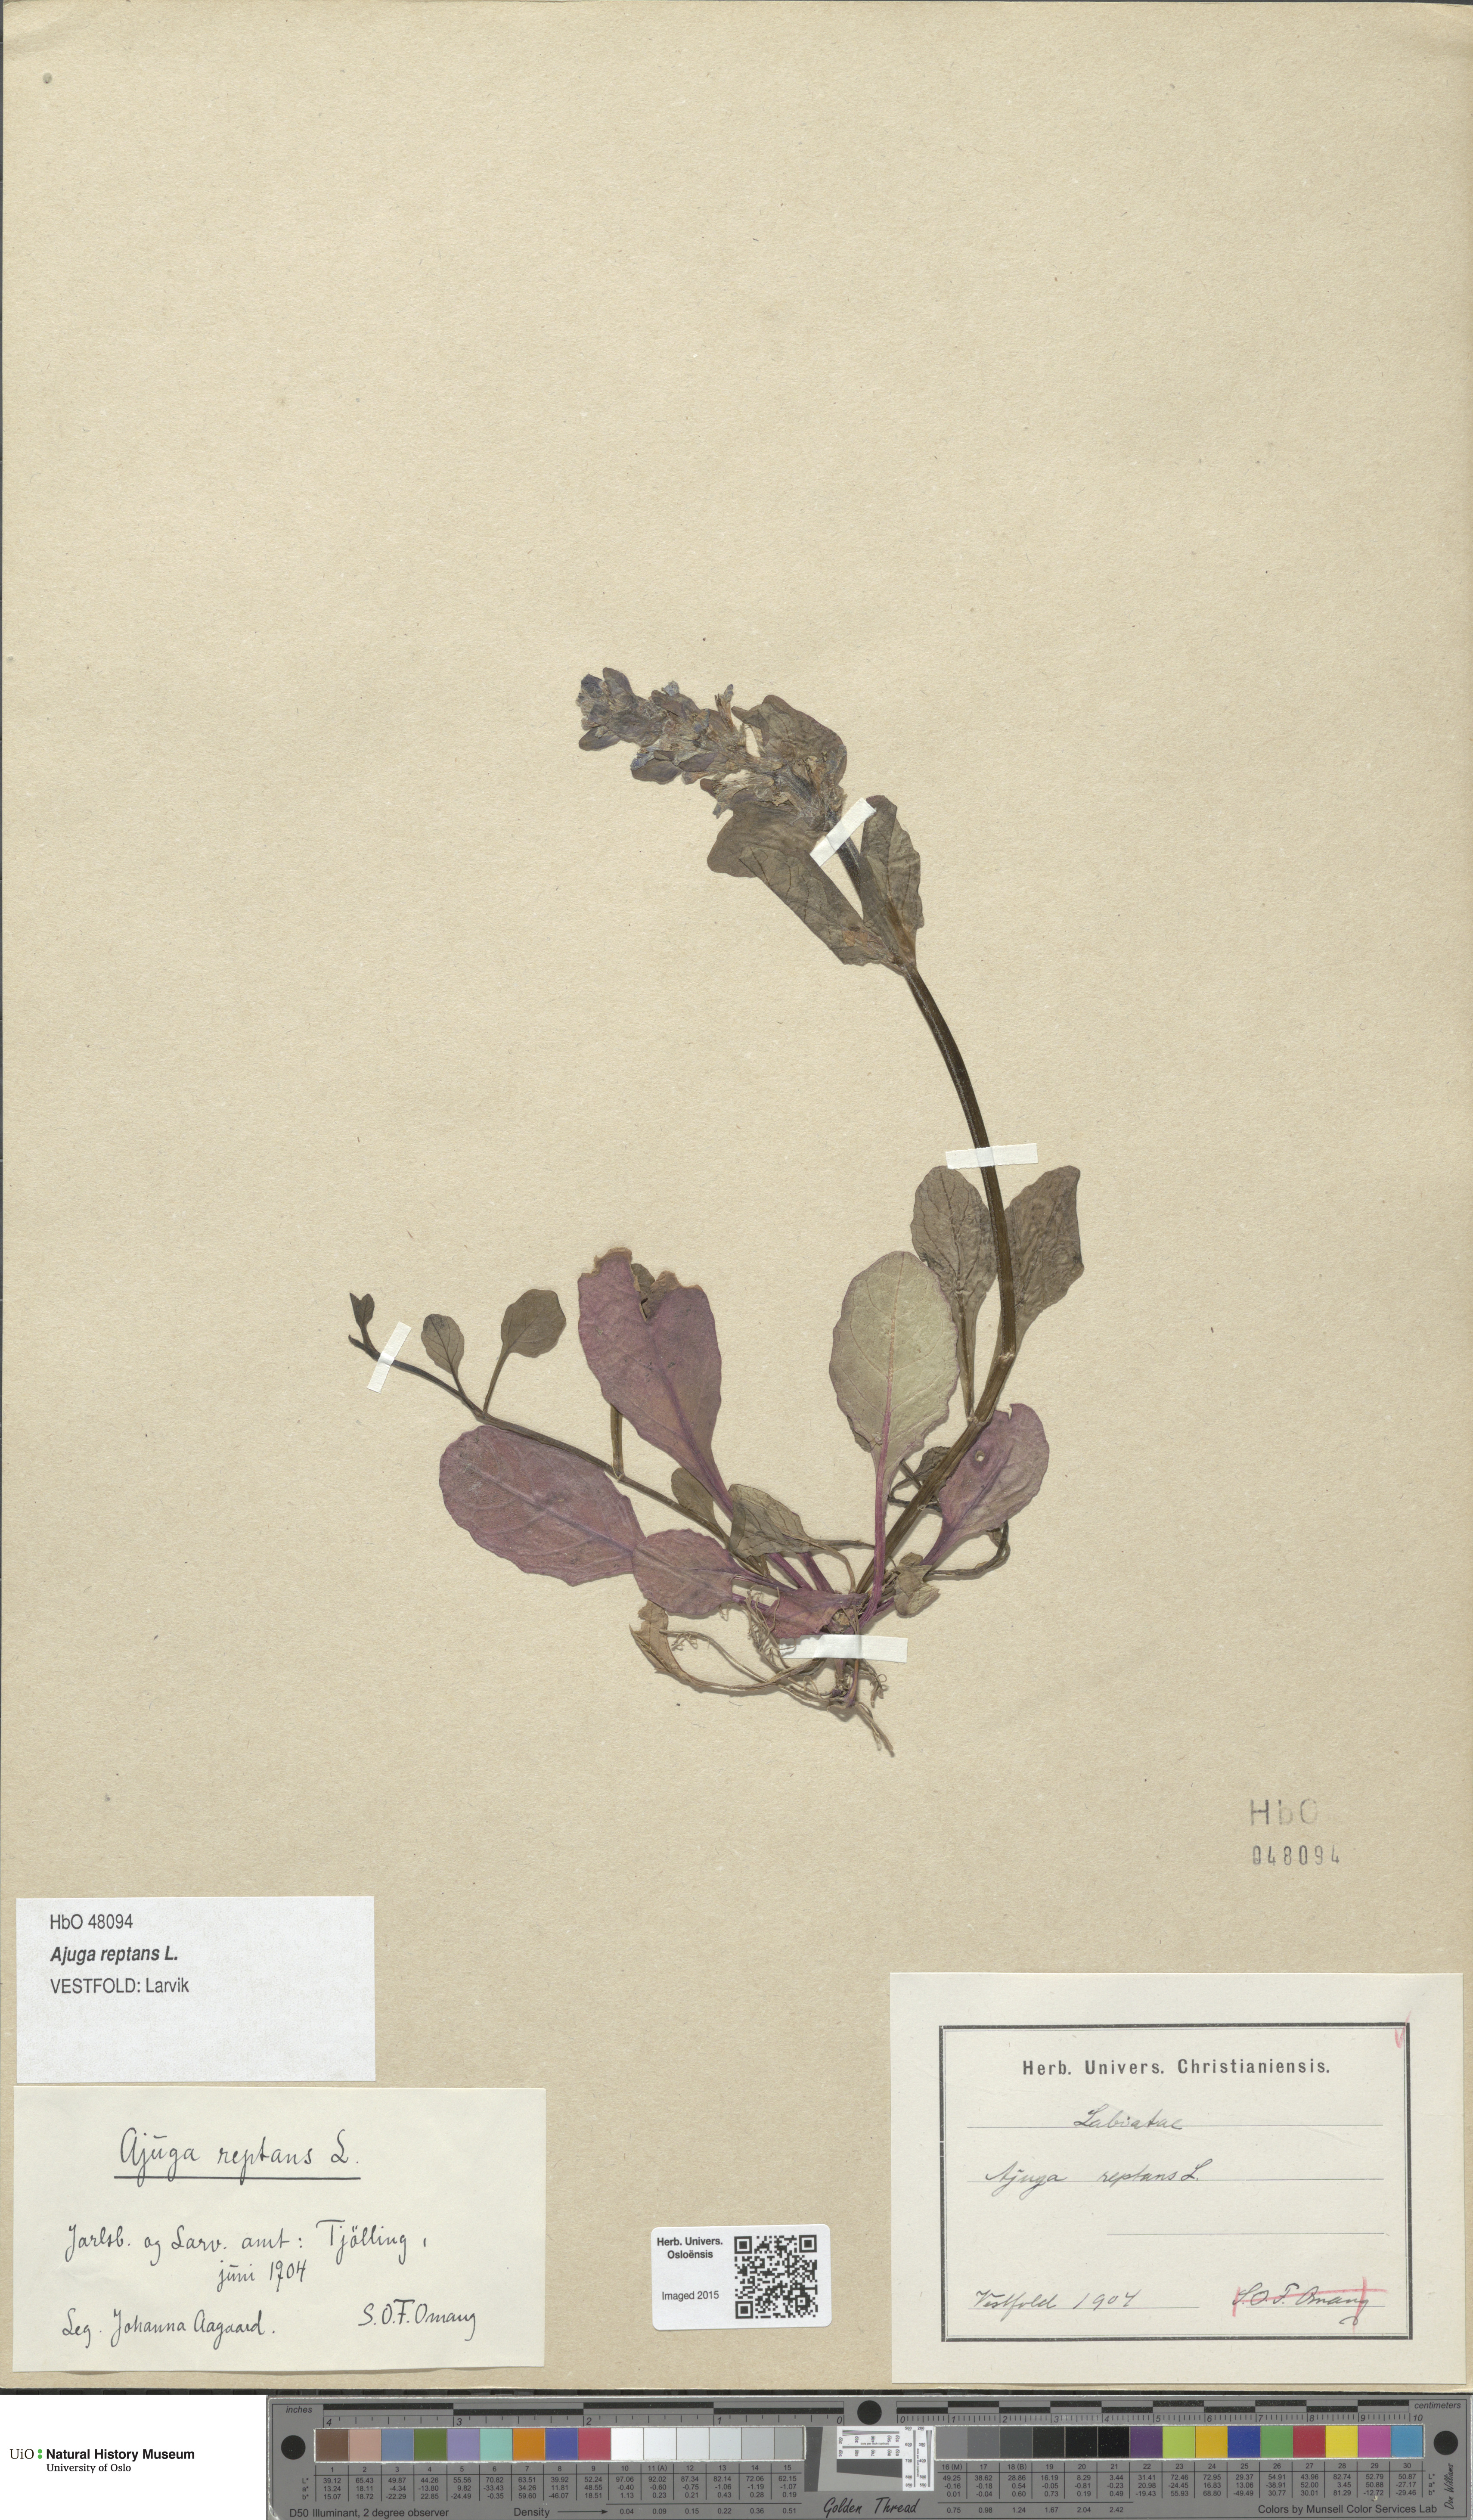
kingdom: Plantae
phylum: Tracheophyta
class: Magnoliopsida
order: Lamiales
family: Lamiaceae
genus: Ajuga
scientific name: Ajuga reptans
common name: Bugle
